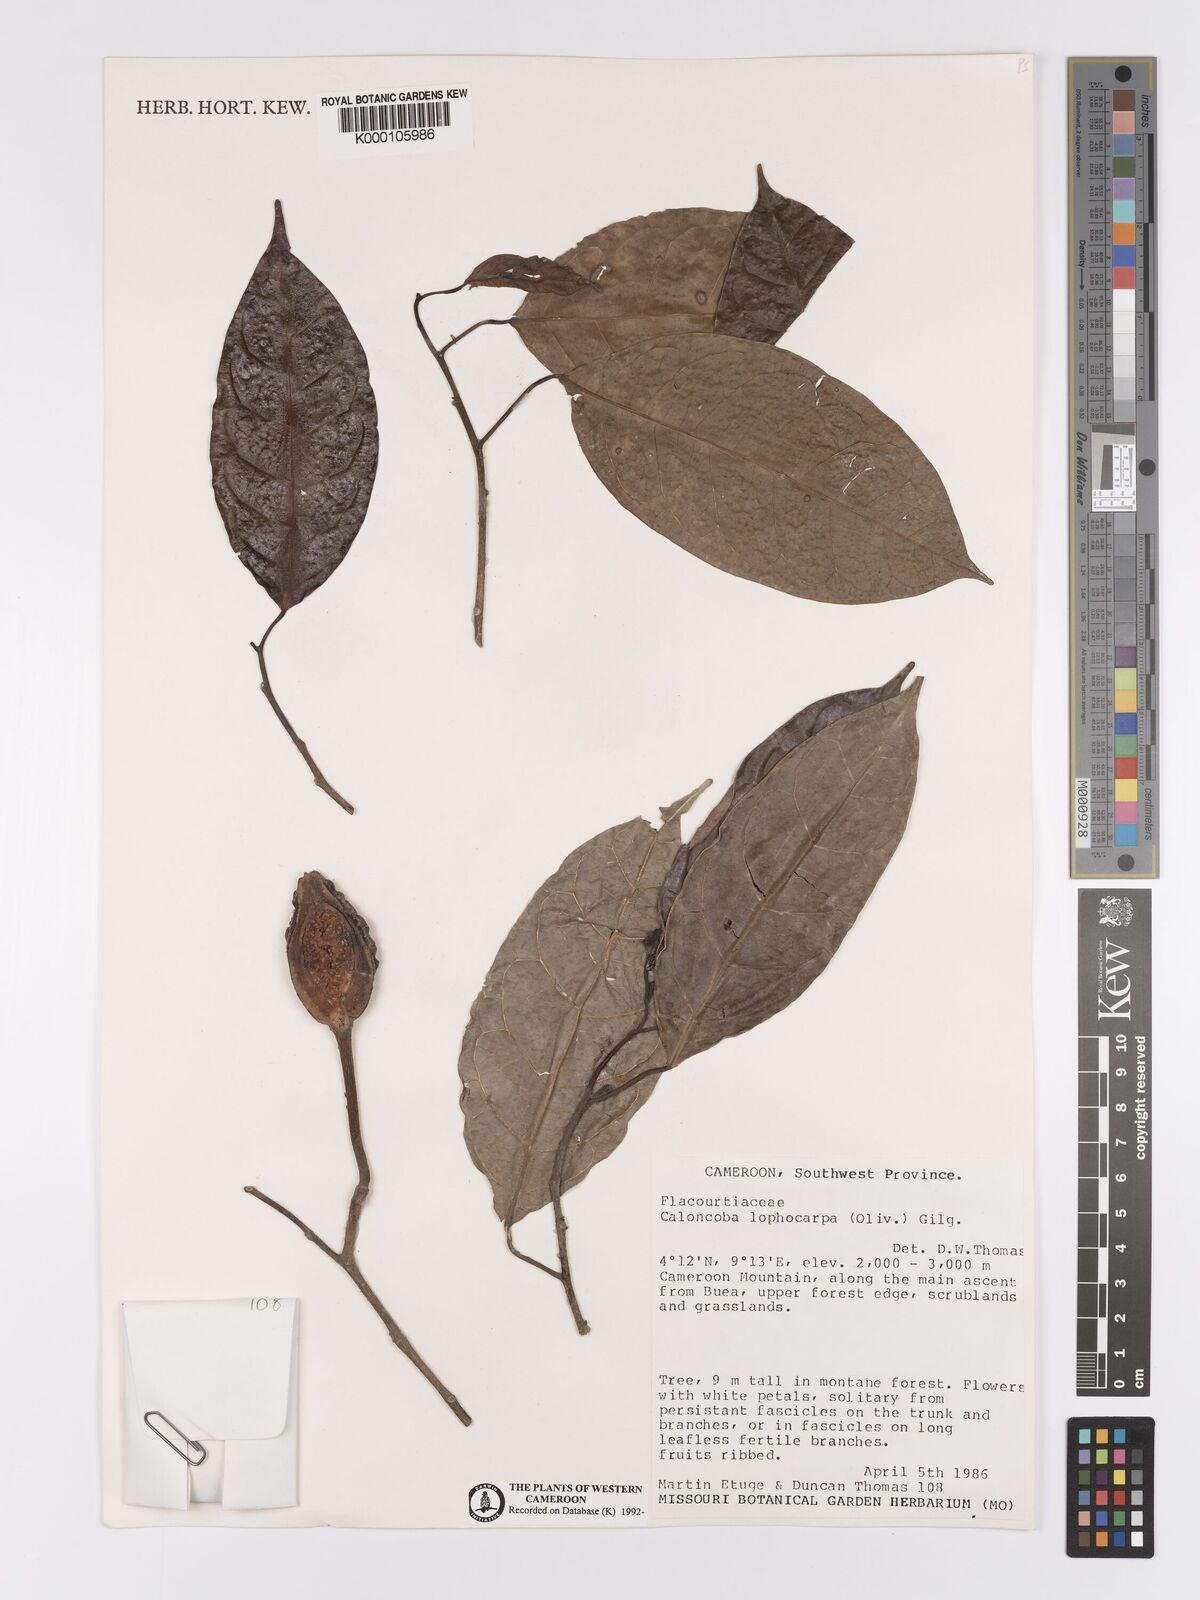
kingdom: Plantae
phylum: Tracheophyta
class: Magnoliopsida
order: Malpighiales
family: Achariaceae
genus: Caloncoba
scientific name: Caloncoba lophocarpa
